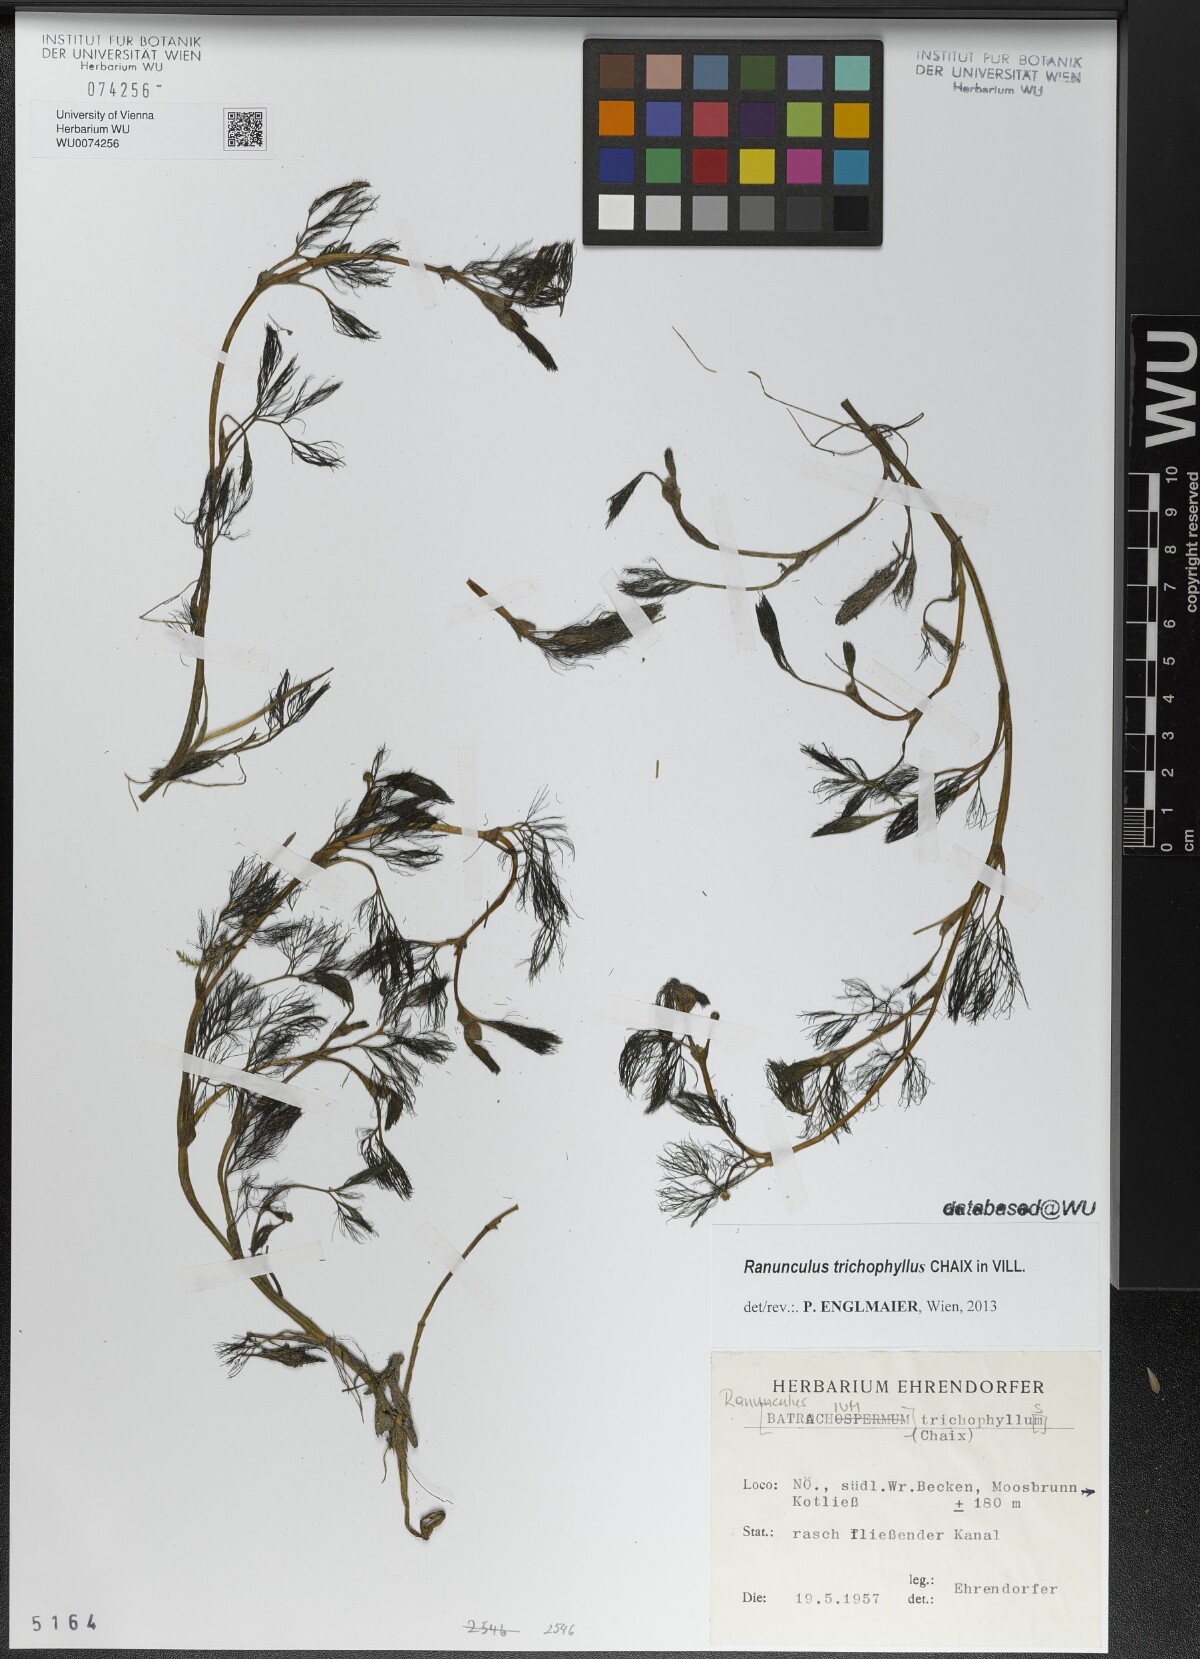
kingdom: Plantae
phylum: Tracheophyta
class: Magnoliopsida
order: Ranunculales
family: Ranunculaceae
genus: Ranunculus
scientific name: Ranunculus trichophyllus
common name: Thread-leaved water-crowfoot
